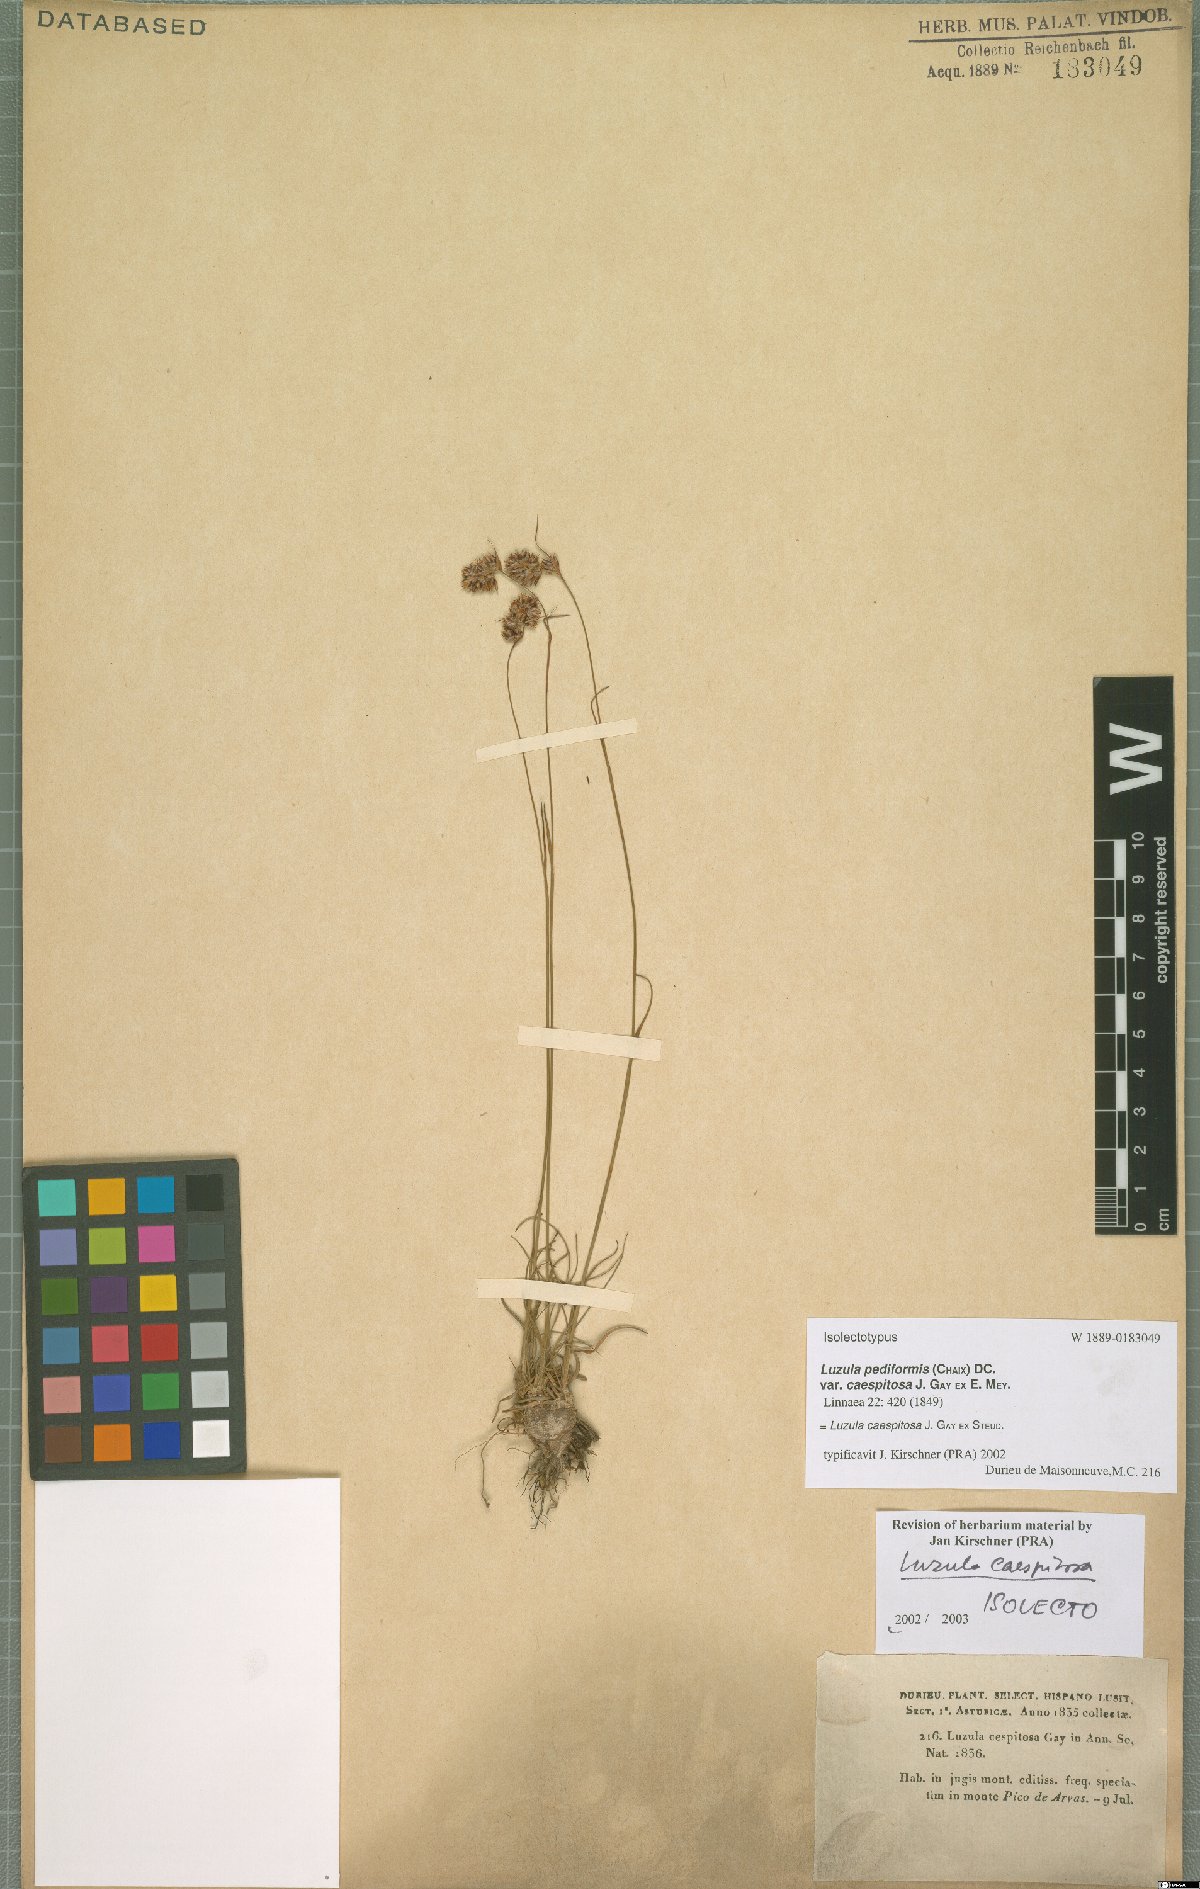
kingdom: Plantae
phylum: Tracheophyta
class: Liliopsida
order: Poales
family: Juncaceae
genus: Luzula
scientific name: Luzula caespitosa
